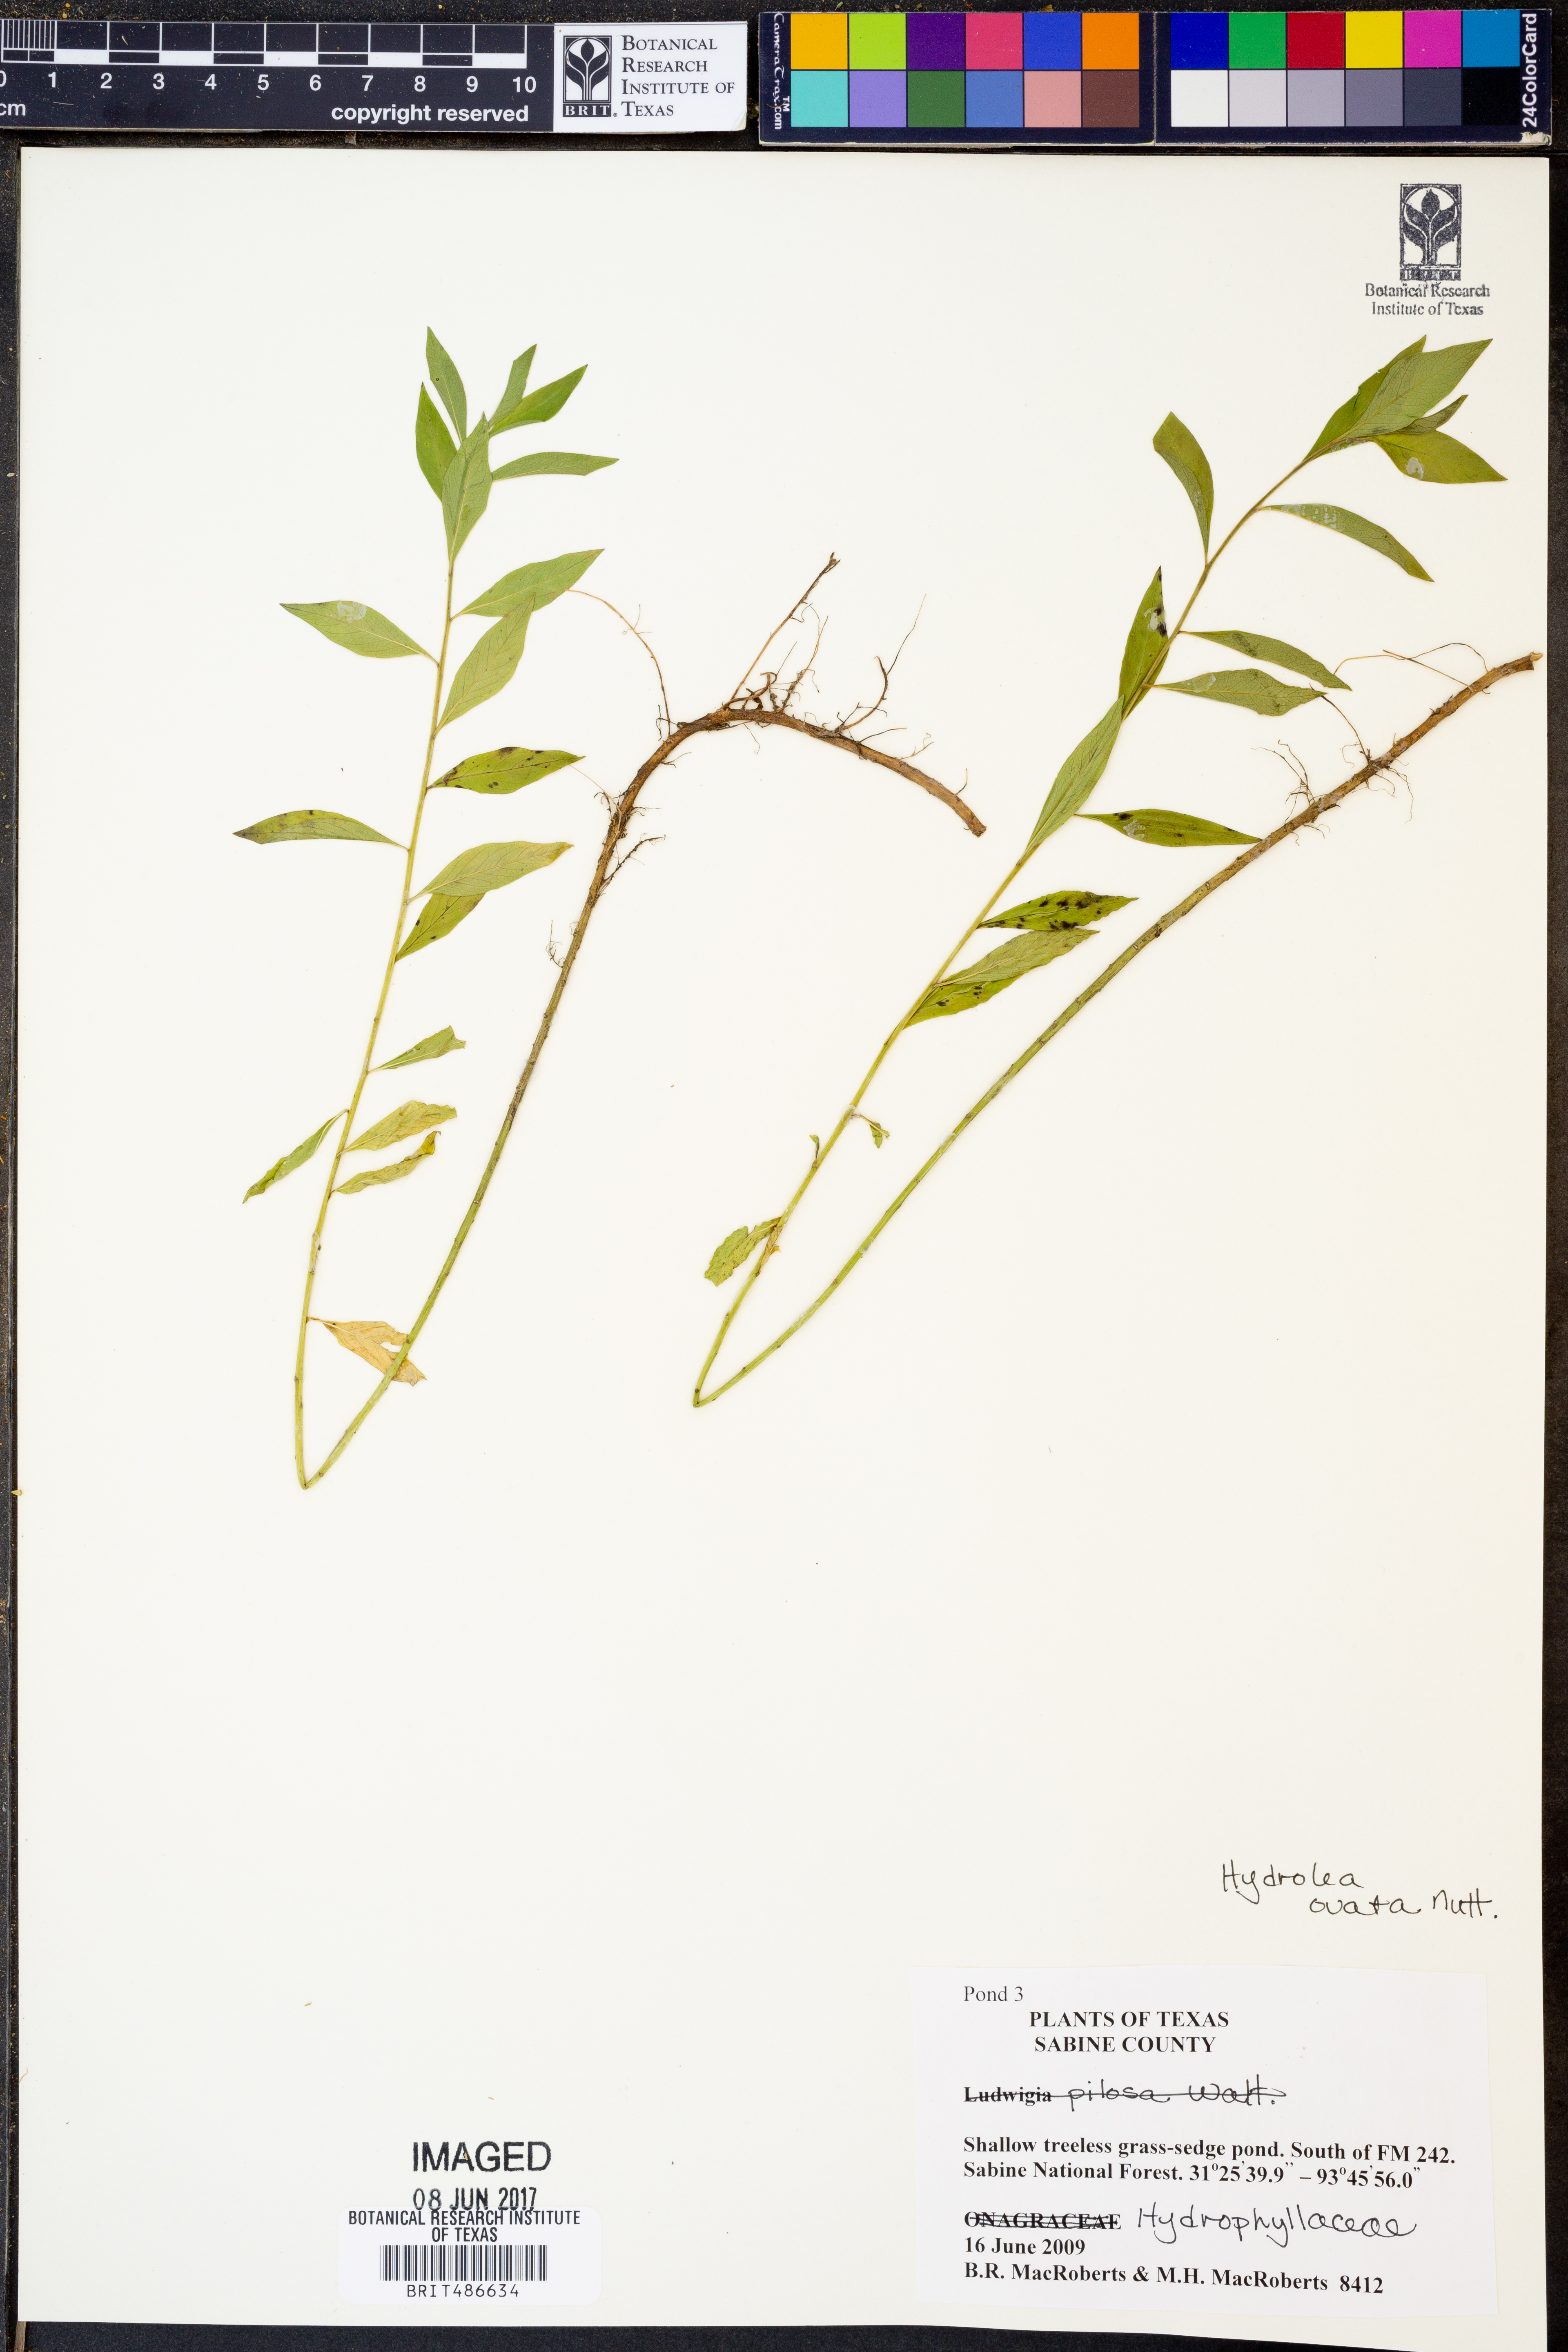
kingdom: Plantae
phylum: Tracheophyta
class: Magnoliopsida
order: Solanales
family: Hydroleaceae
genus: Hydrolea
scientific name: Hydrolea ovata
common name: Ovate false fiddleleaf
